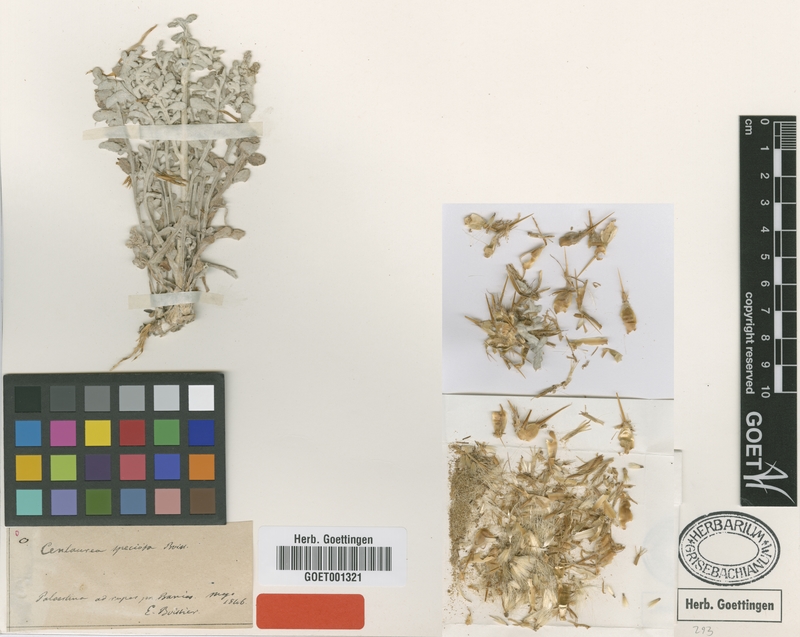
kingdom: Plantae
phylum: Tracheophyta
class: Magnoliopsida
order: Asterales
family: Asteraceae
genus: Centaurea
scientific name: Centaurea speciosa
